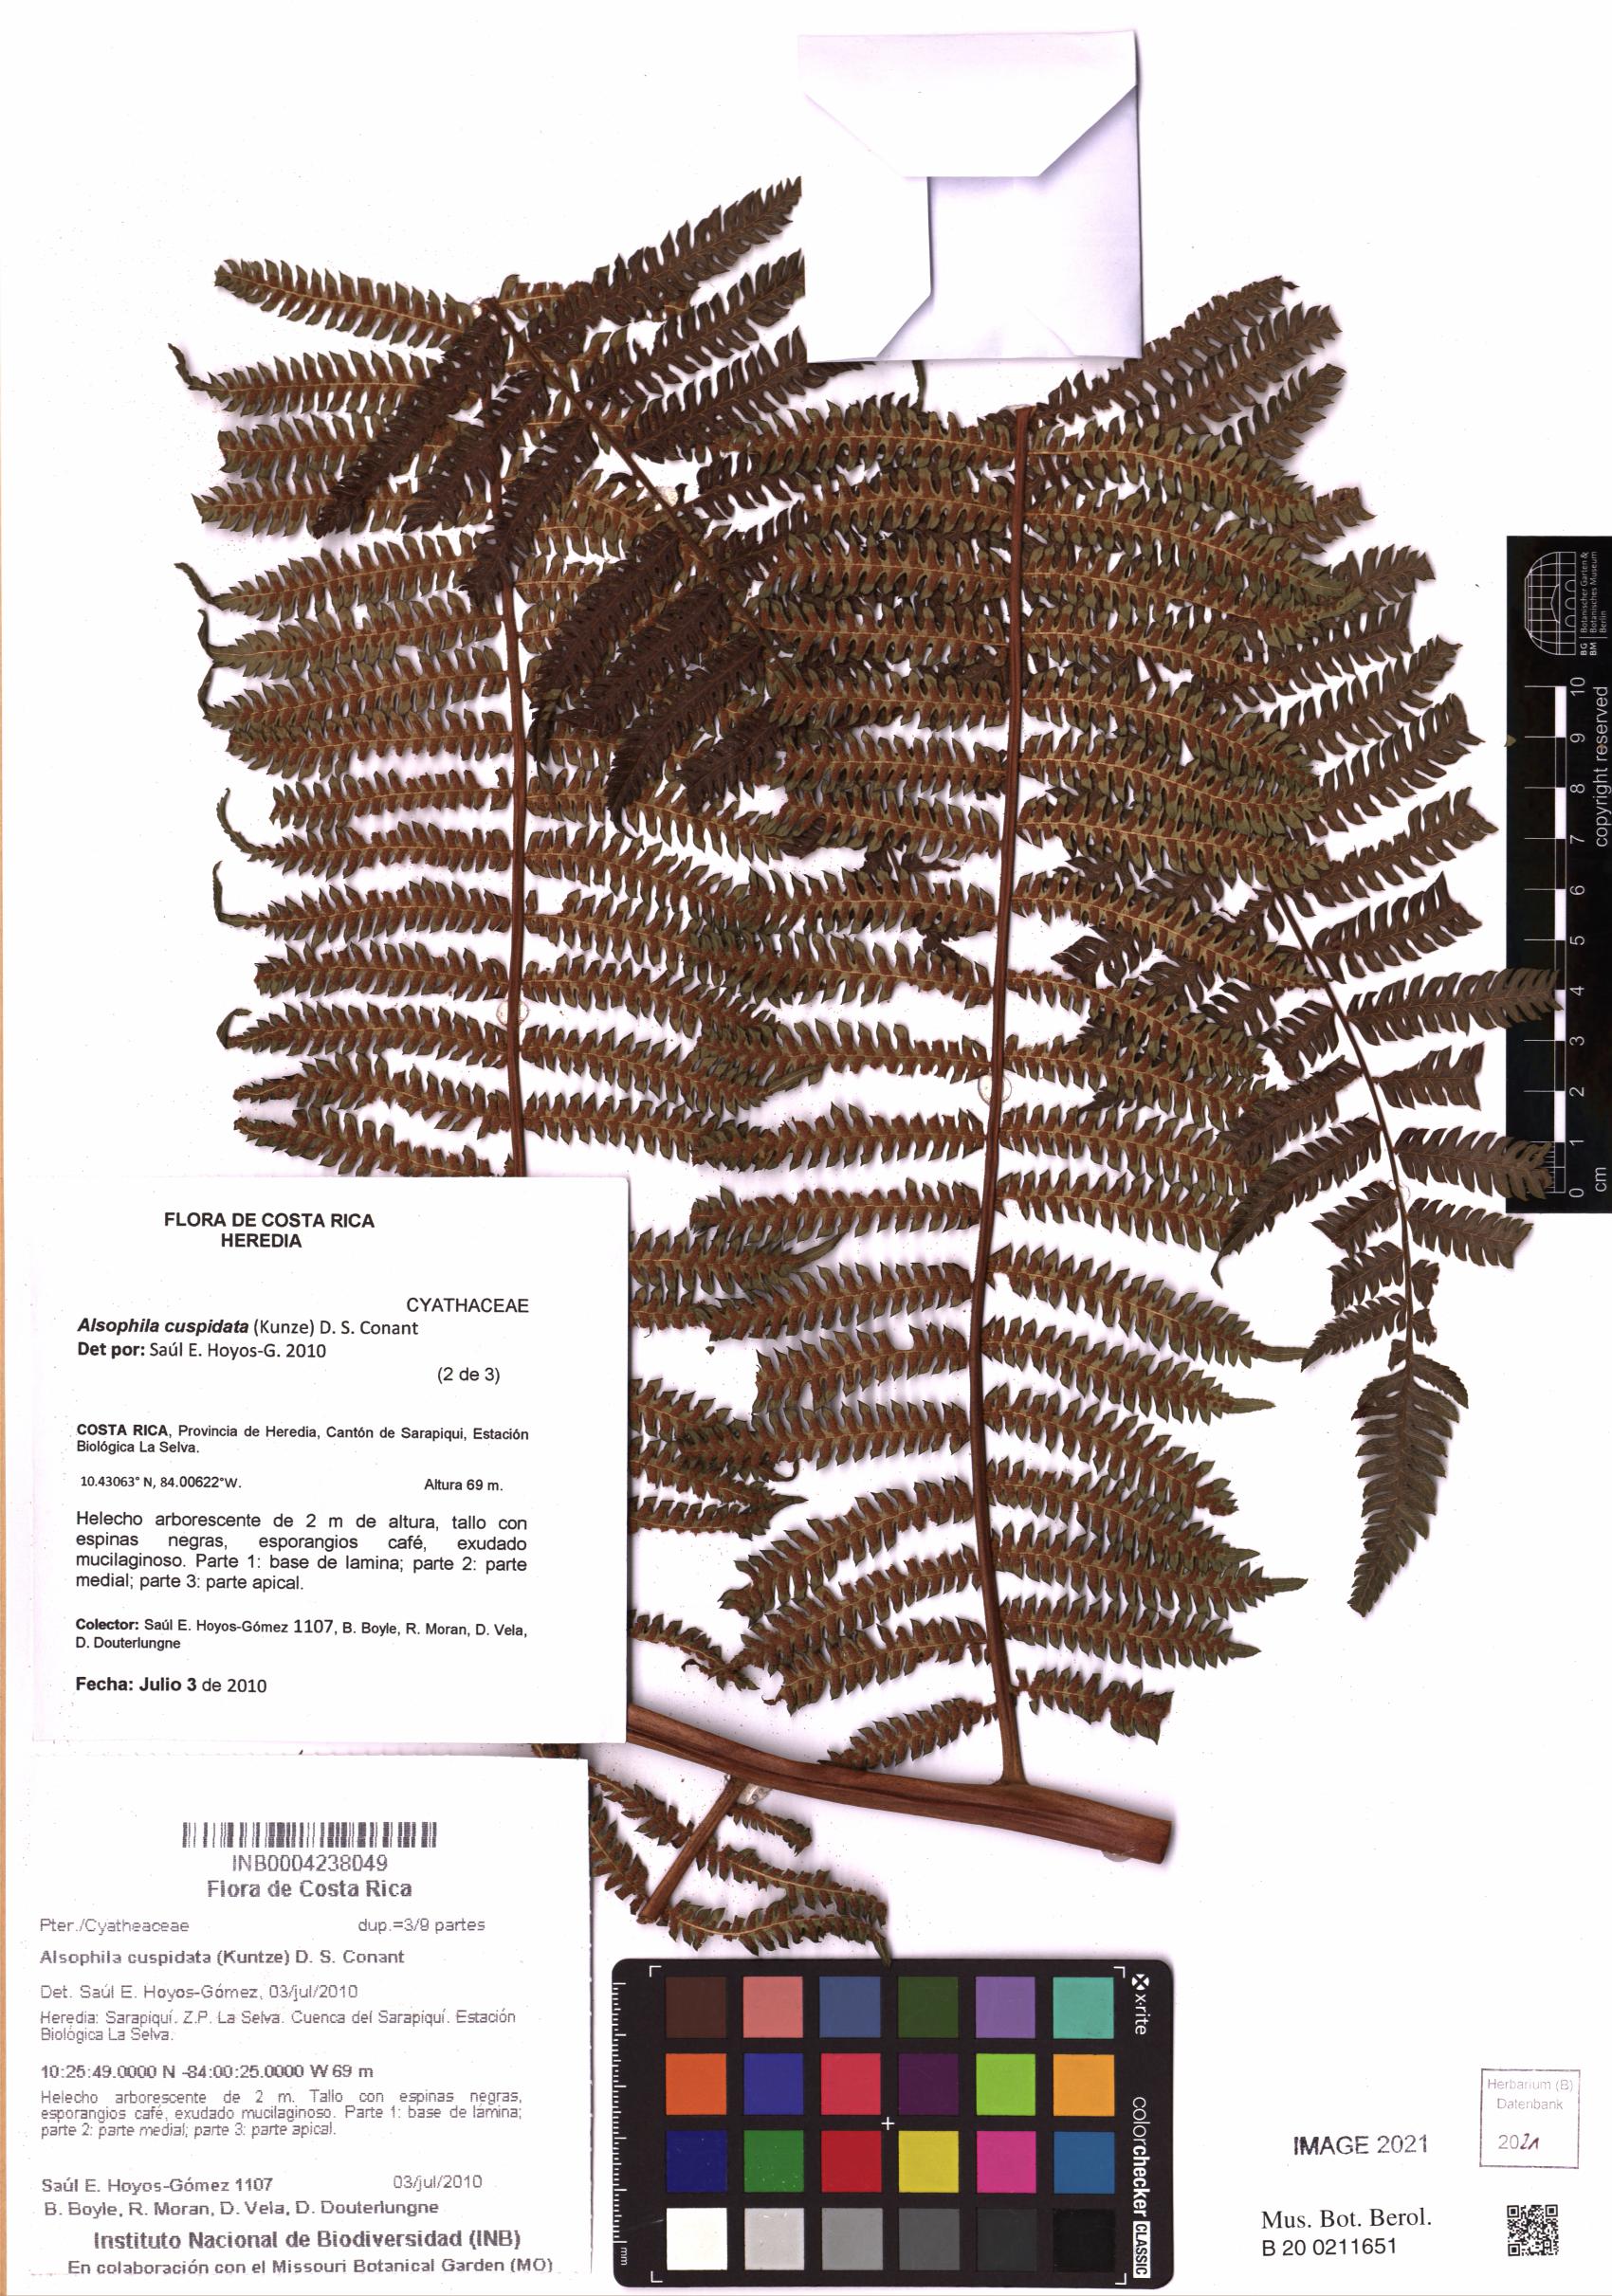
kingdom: Plantae
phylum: Tracheophyta
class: Polypodiopsida
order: Cyatheales
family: Cyatheaceae
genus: Alsophila
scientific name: Alsophila cuspidata
